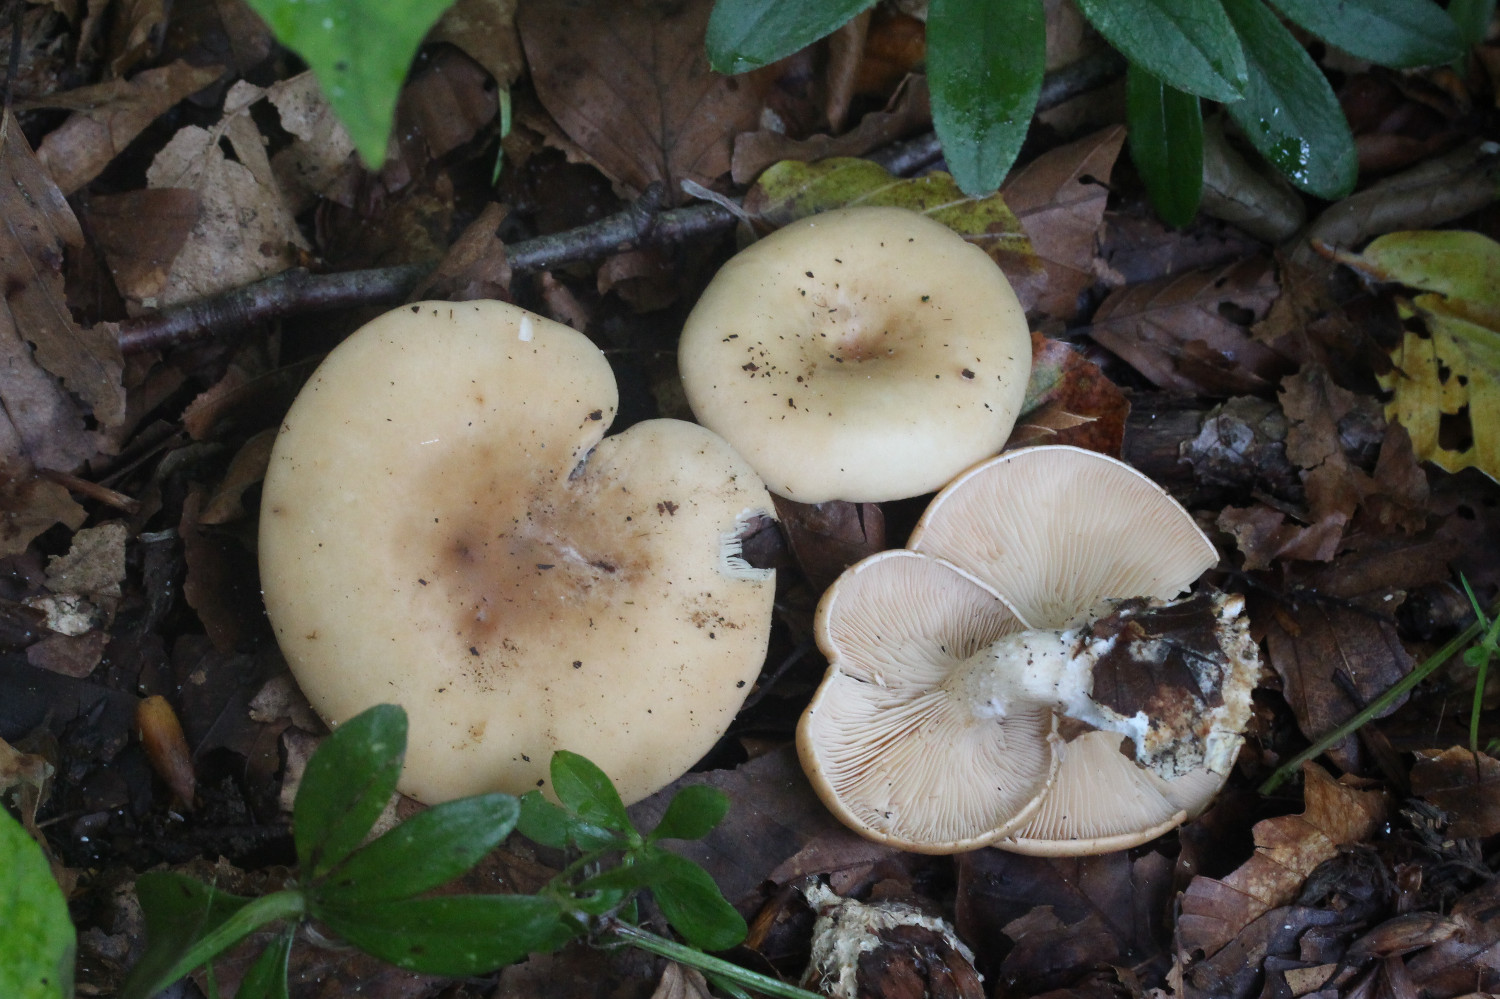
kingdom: Fungi
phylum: Basidiomycota
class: Agaricomycetes
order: Agaricales
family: Tricholomataceae
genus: Paralepista
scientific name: Paralepista flaccida
